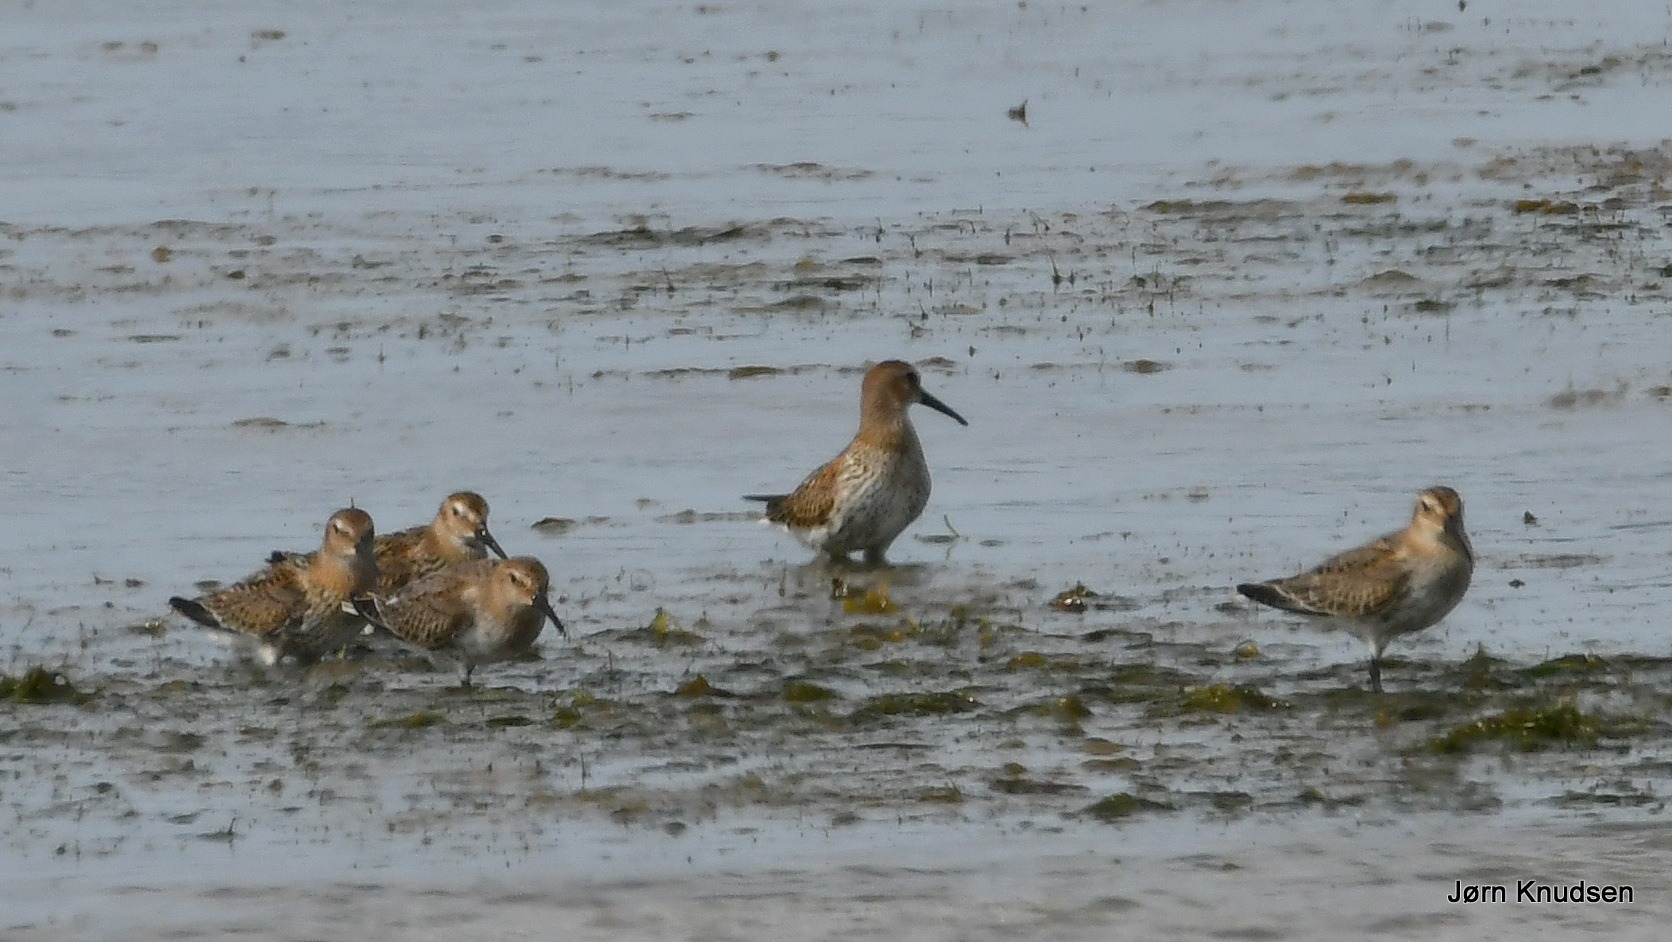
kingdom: Animalia
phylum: Chordata
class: Aves
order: Charadriiformes
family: Scolopacidae
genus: Calidris
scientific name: Calidris alpina
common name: Almindelig ryle
